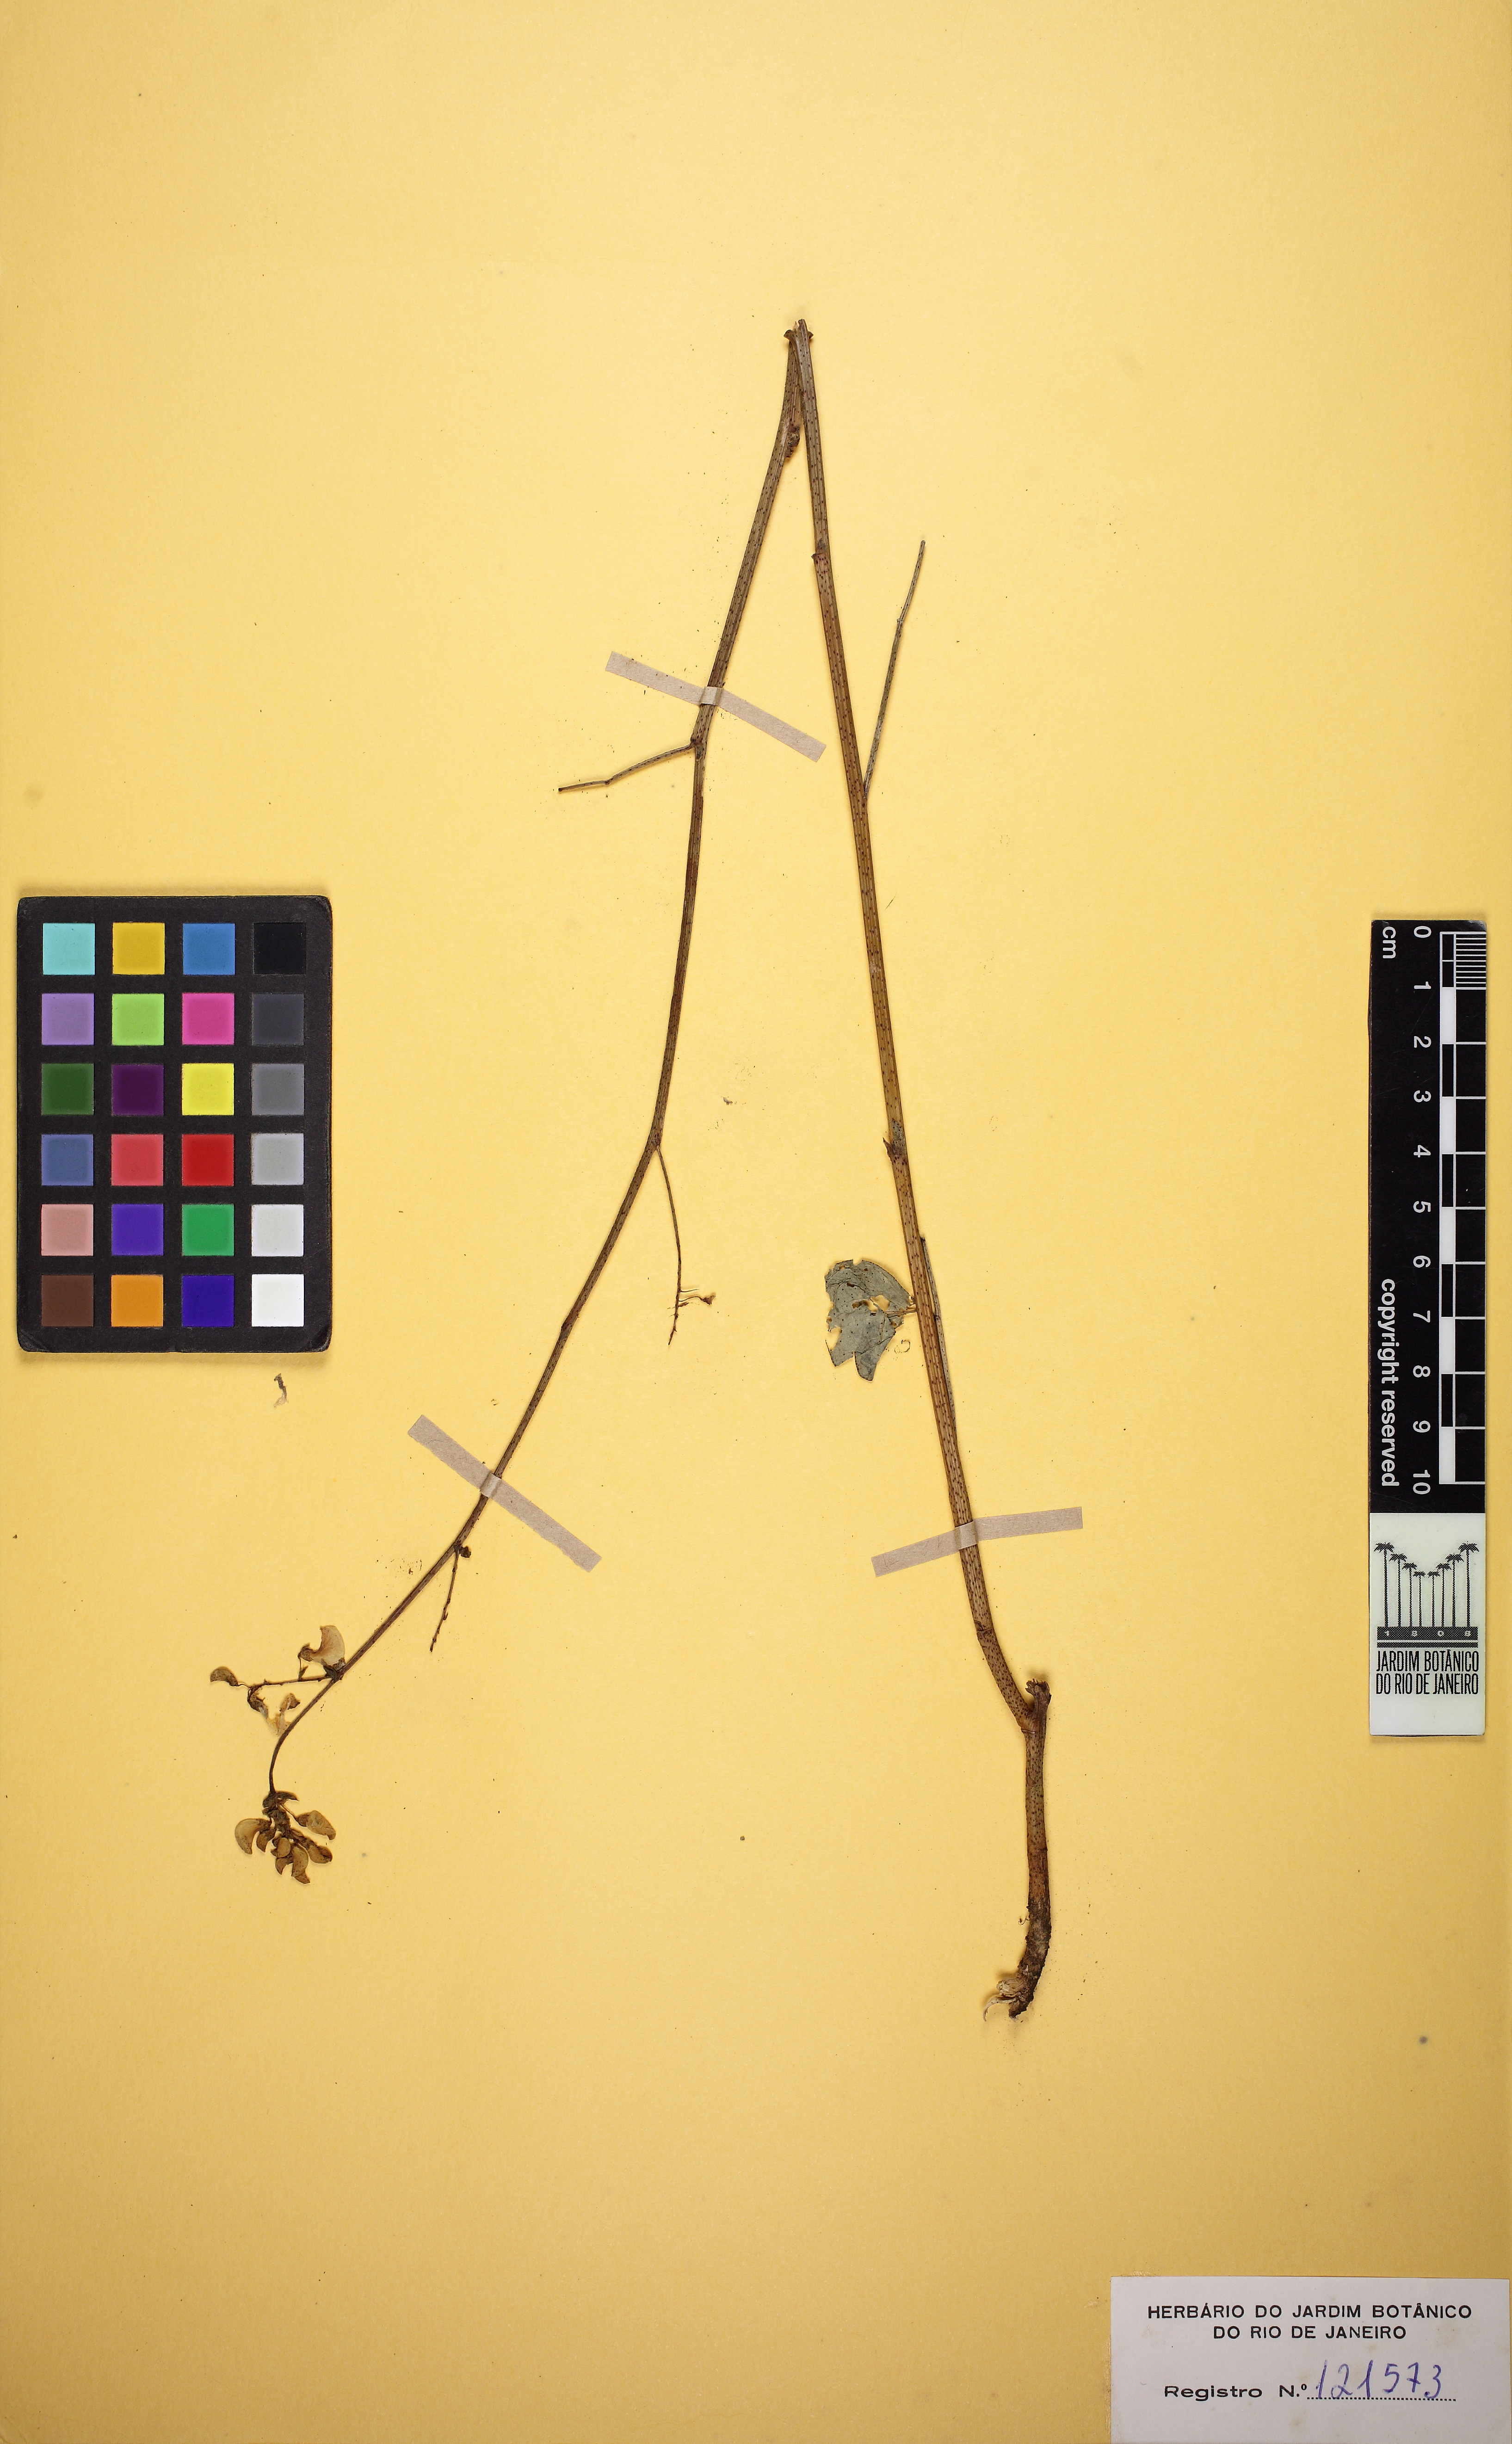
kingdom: Plantae
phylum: Tracheophyta
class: Magnoliopsida
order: Fabales
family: Fabaceae
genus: Poiretia
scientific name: Poiretia latifolia
